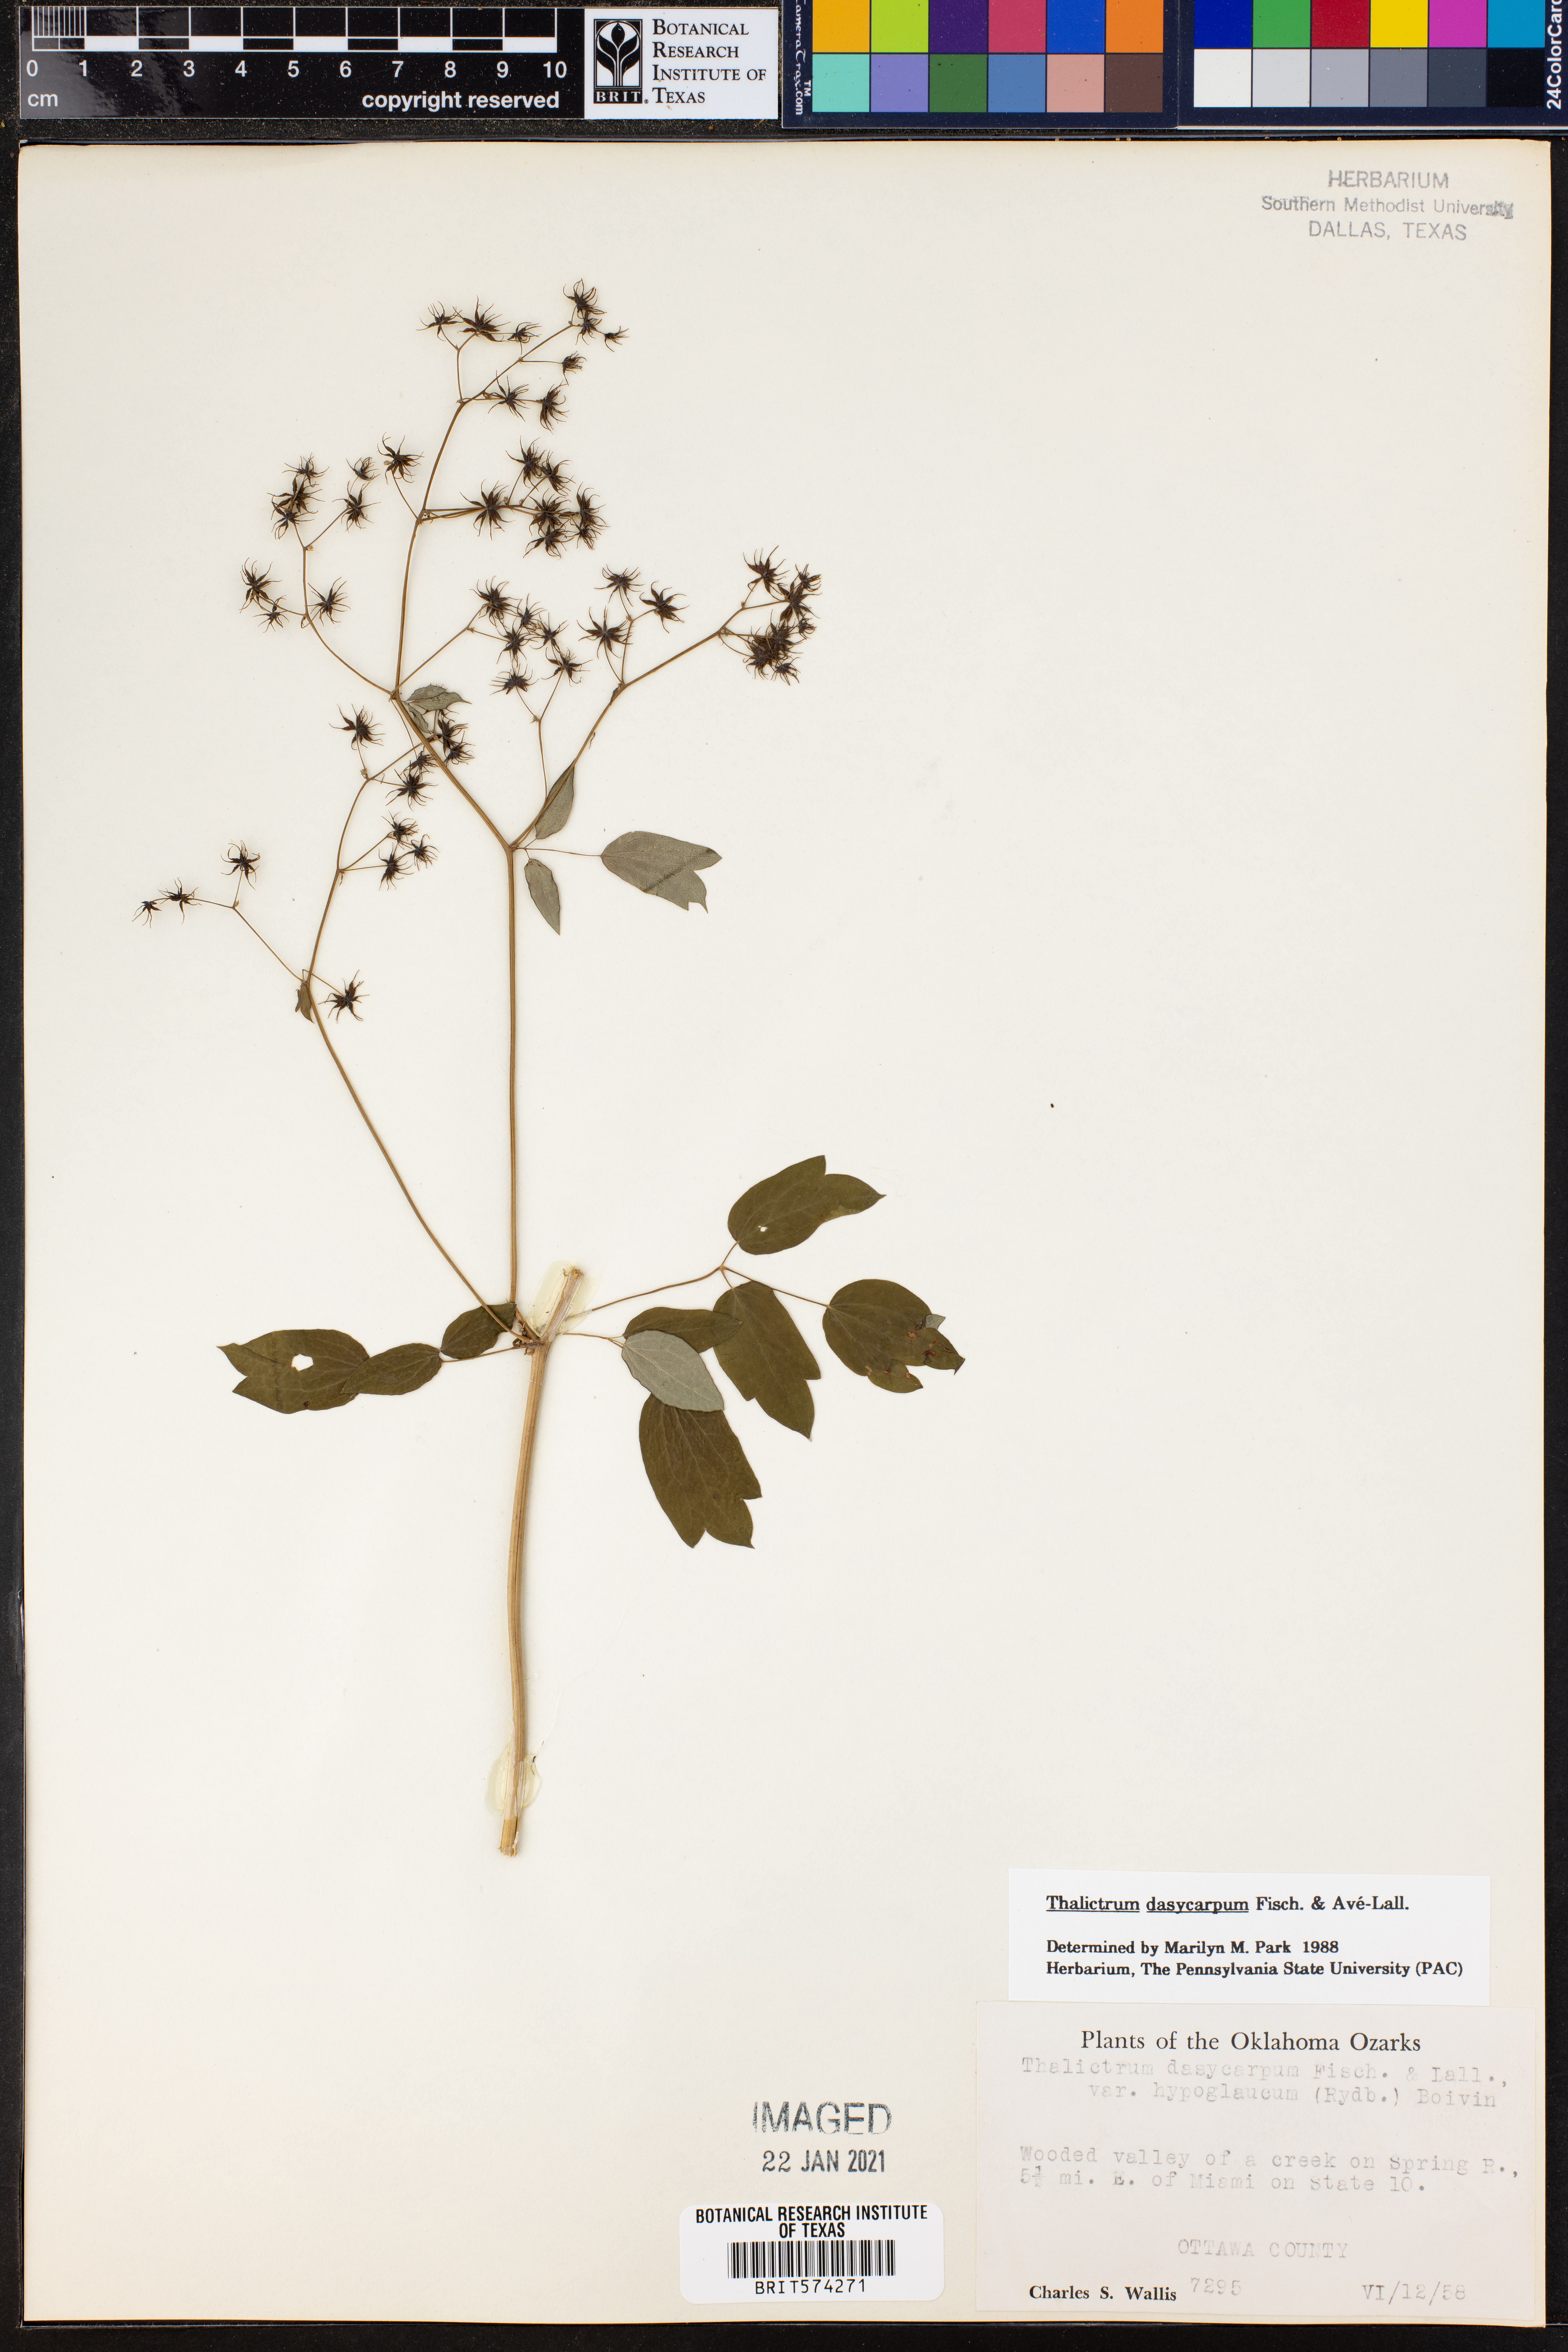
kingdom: Plantae
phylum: Tracheophyta
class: Magnoliopsida
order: Ranunculales
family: Ranunculaceae
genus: Thalictrum
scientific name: Thalictrum dasycarpum
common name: Purple meadow-rue
